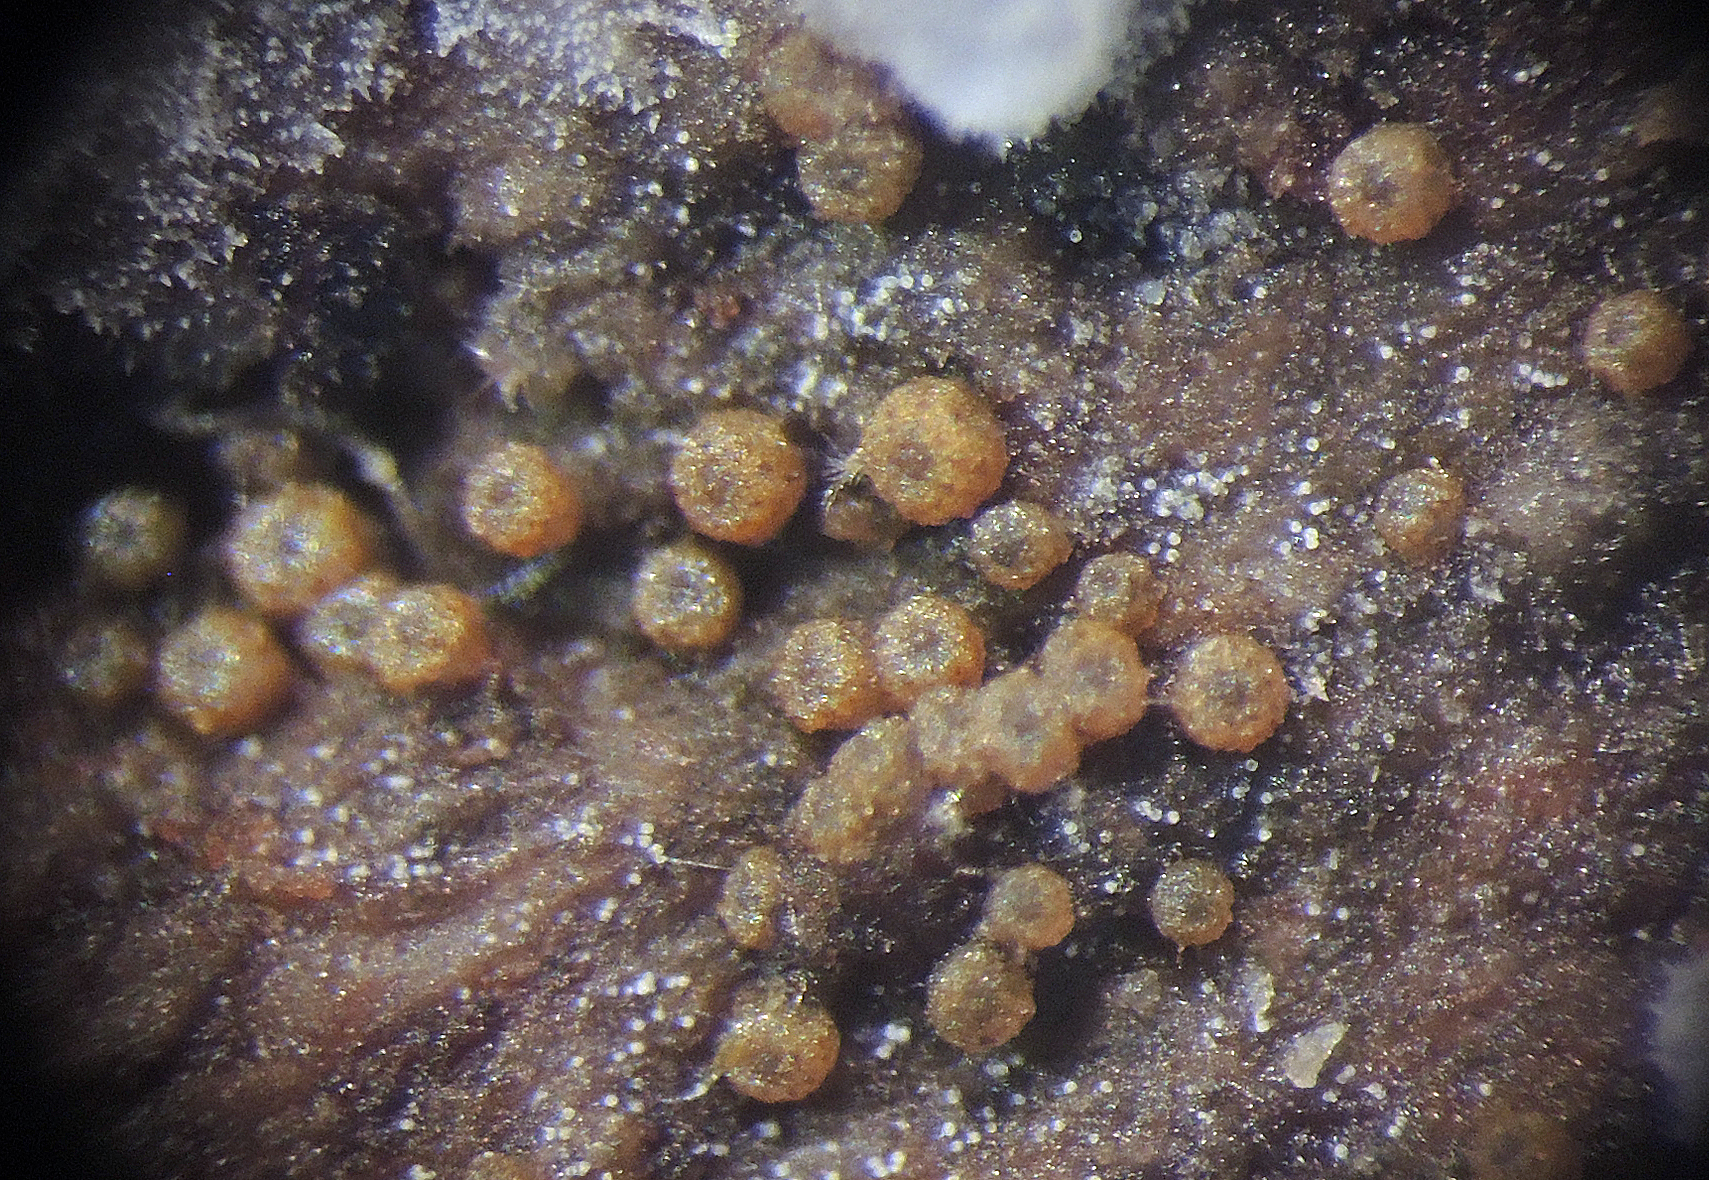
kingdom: Fungi
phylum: Ascomycota
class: Dothideomycetes
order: Tubeufiales
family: Tubeufiaceae
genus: Tubeufia
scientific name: Tubeufia cerea
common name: gulbrun tyksækkrukke
